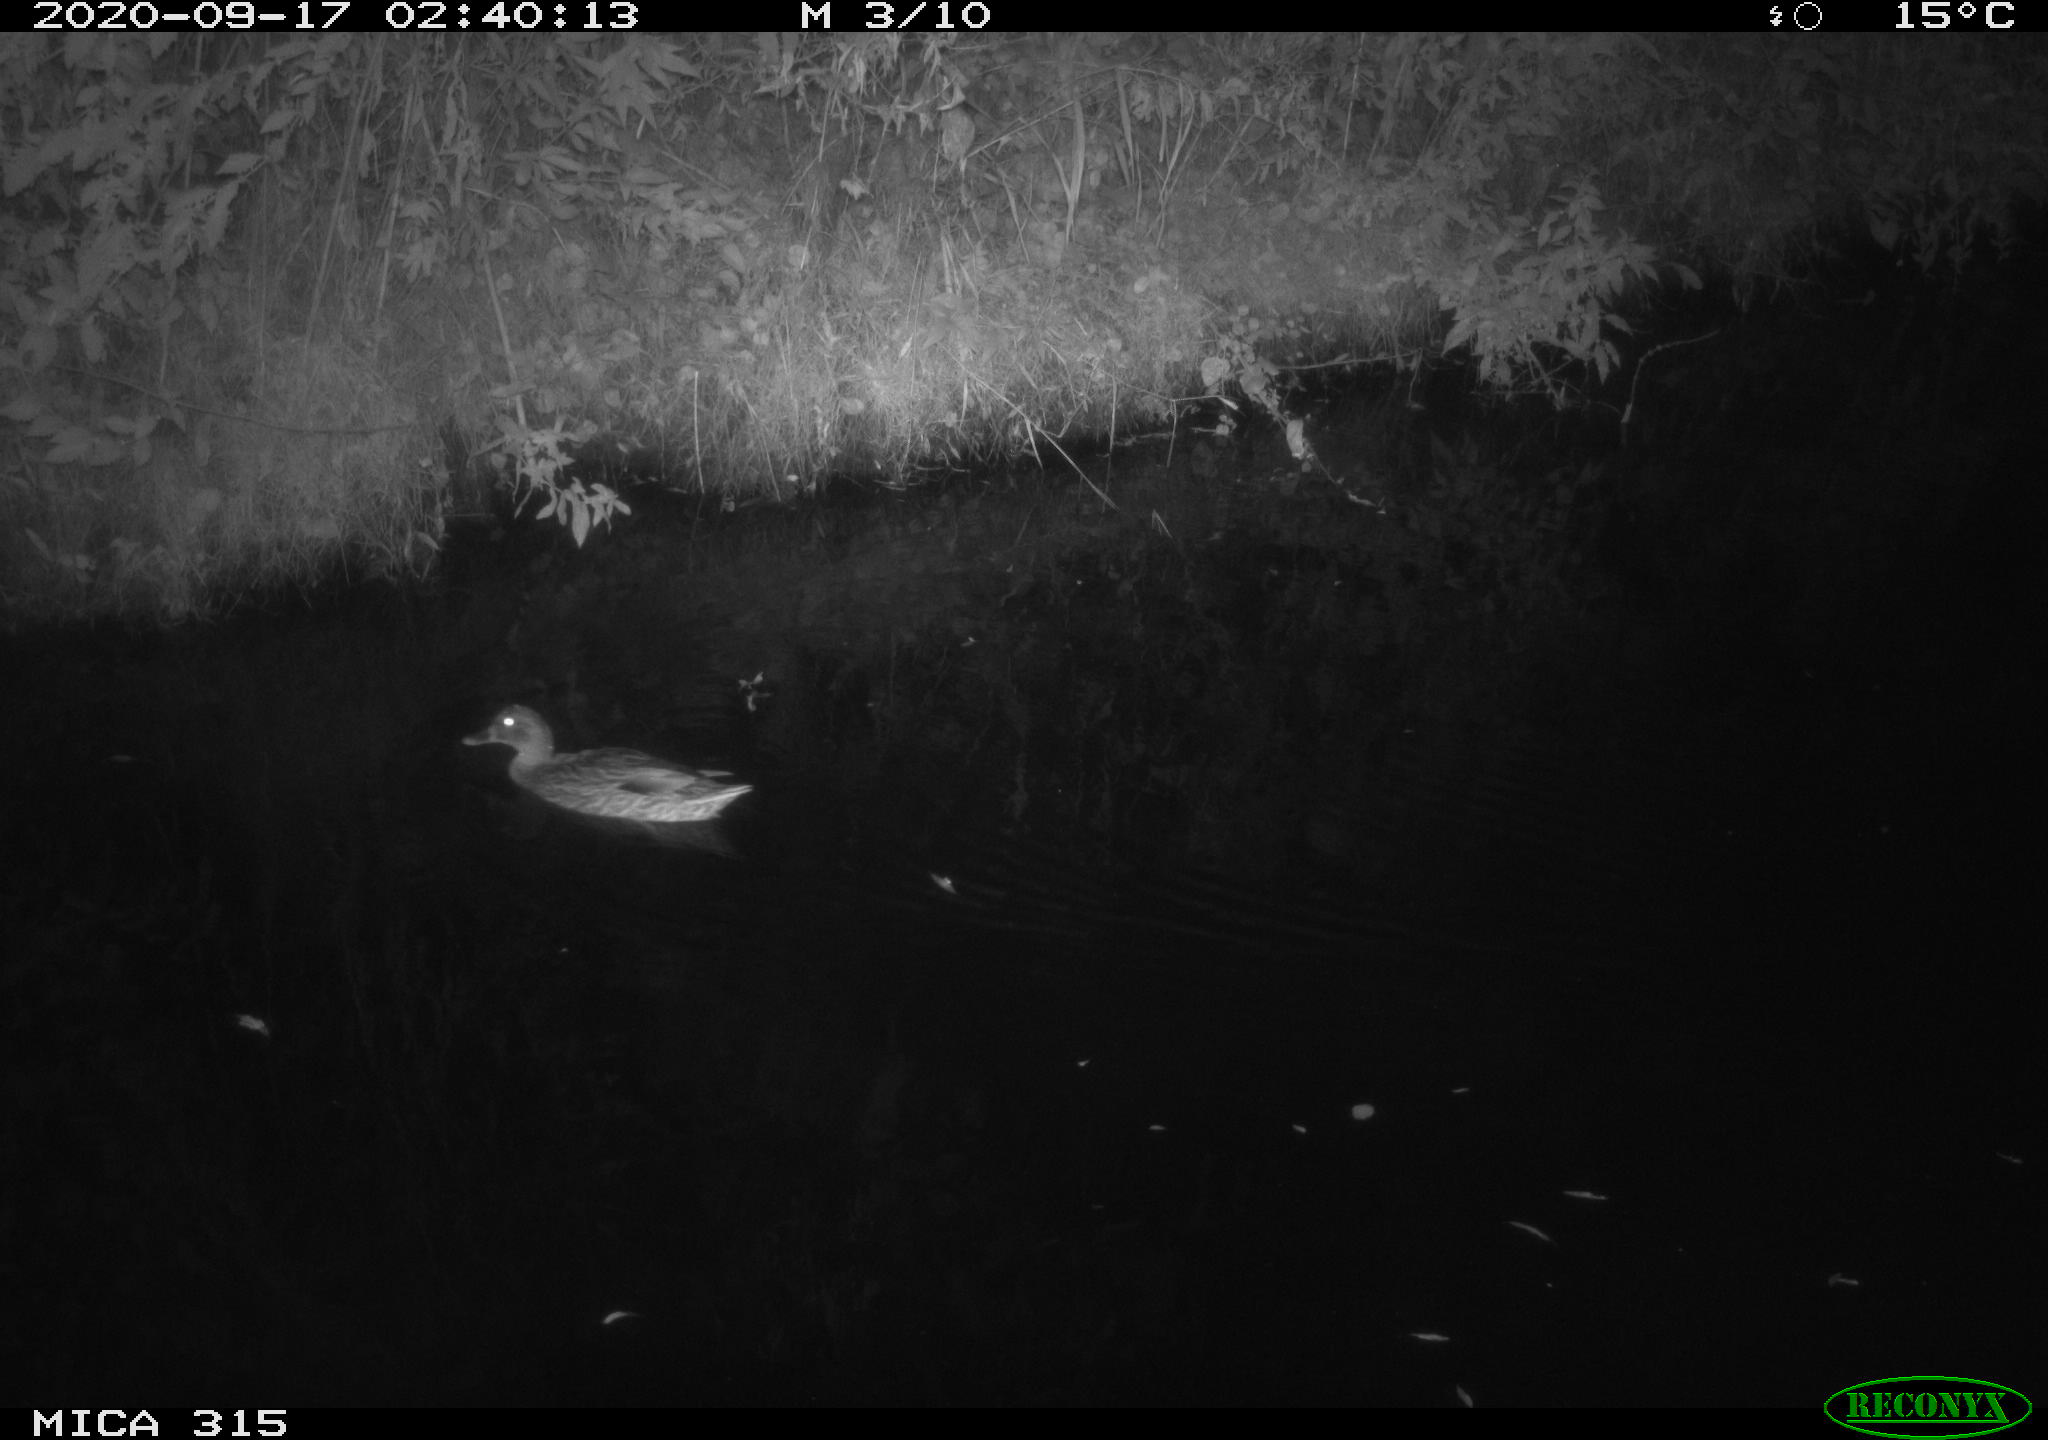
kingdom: Animalia
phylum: Chordata
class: Aves
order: Anseriformes
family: Anatidae
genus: Anas
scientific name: Anas platyrhynchos
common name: Mallard
